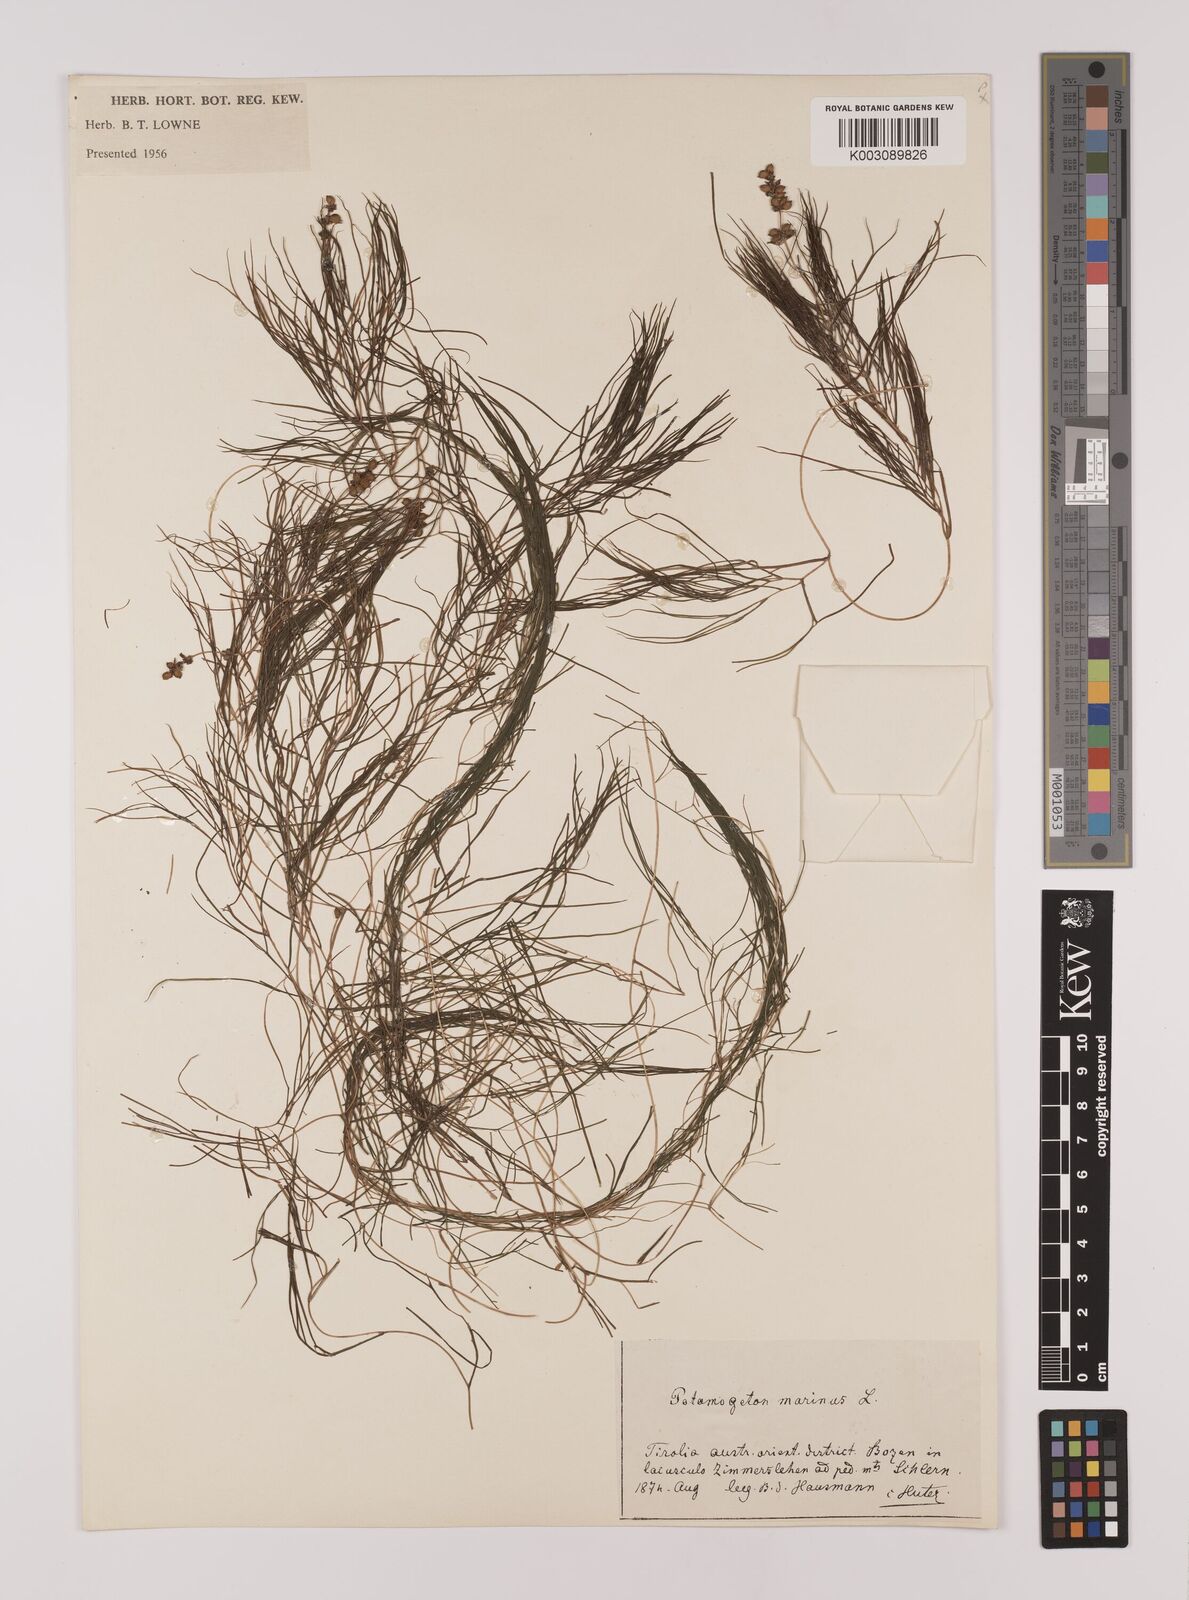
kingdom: Plantae
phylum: Tracheophyta
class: Liliopsida
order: Alismatales
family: Potamogetonaceae
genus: Stuckenia
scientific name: Stuckenia pectinata
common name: Sago pondweed
